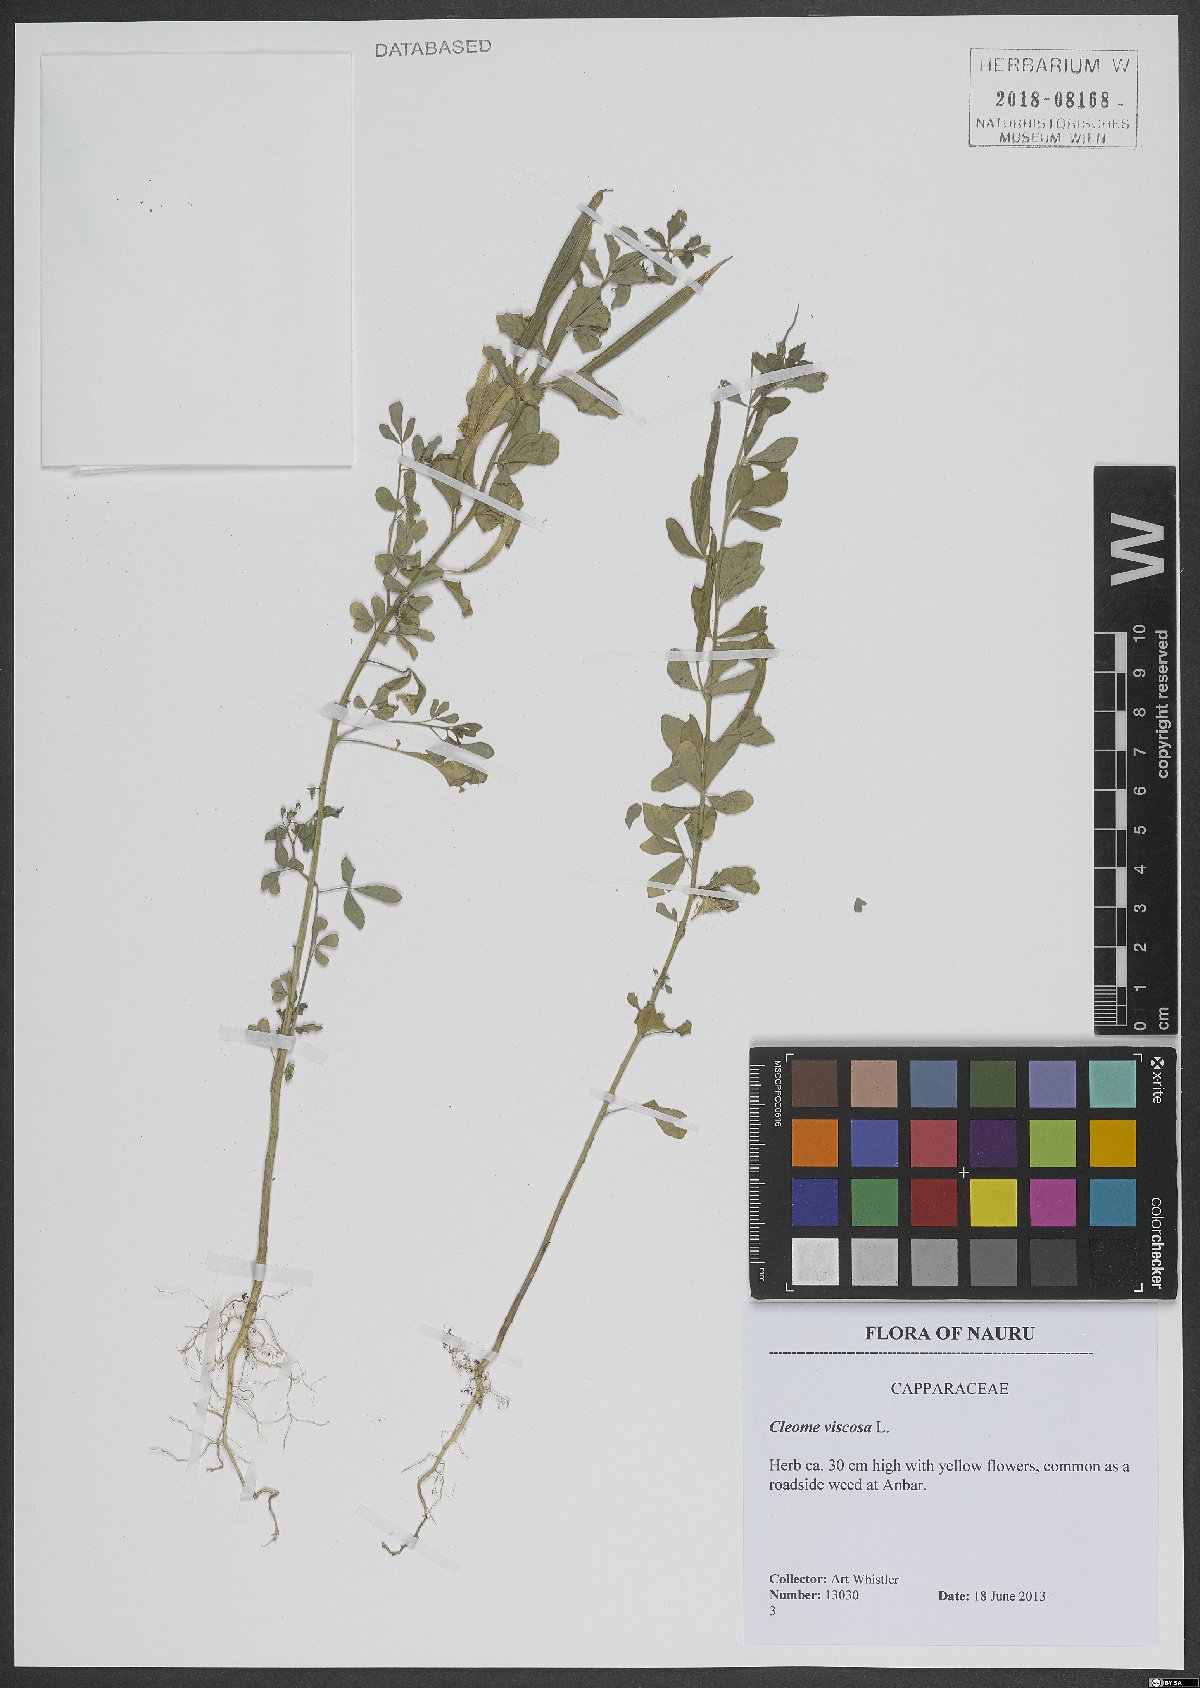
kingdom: Plantae
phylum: Tracheophyta
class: Magnoliopsida
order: Brassicales
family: Cleomaceae
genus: Arivela
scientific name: Arivela viscosa
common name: Asian spiderflower
